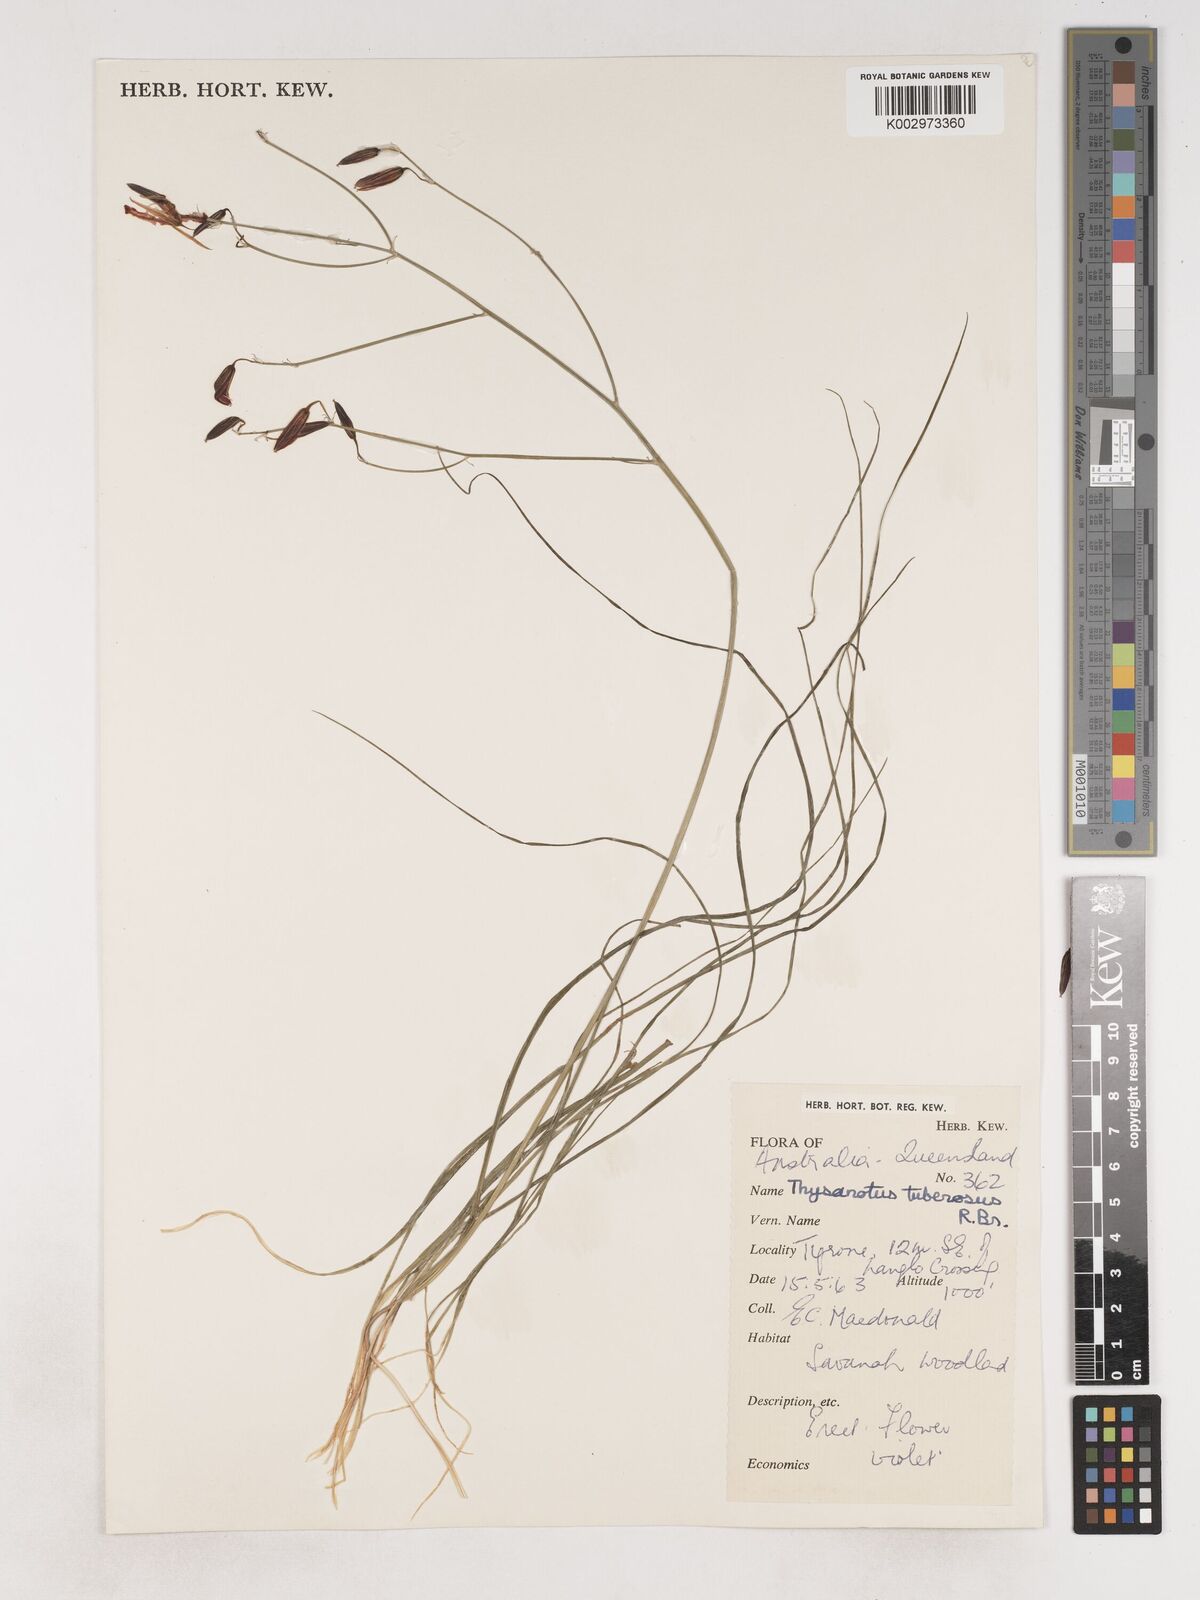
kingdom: Plantae
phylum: Tracheophyta
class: Liliopsida
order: Asparagales
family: Asparagaceae
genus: Thysanotus
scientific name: Thysanotus tuberosus
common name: Common fringed-lily
